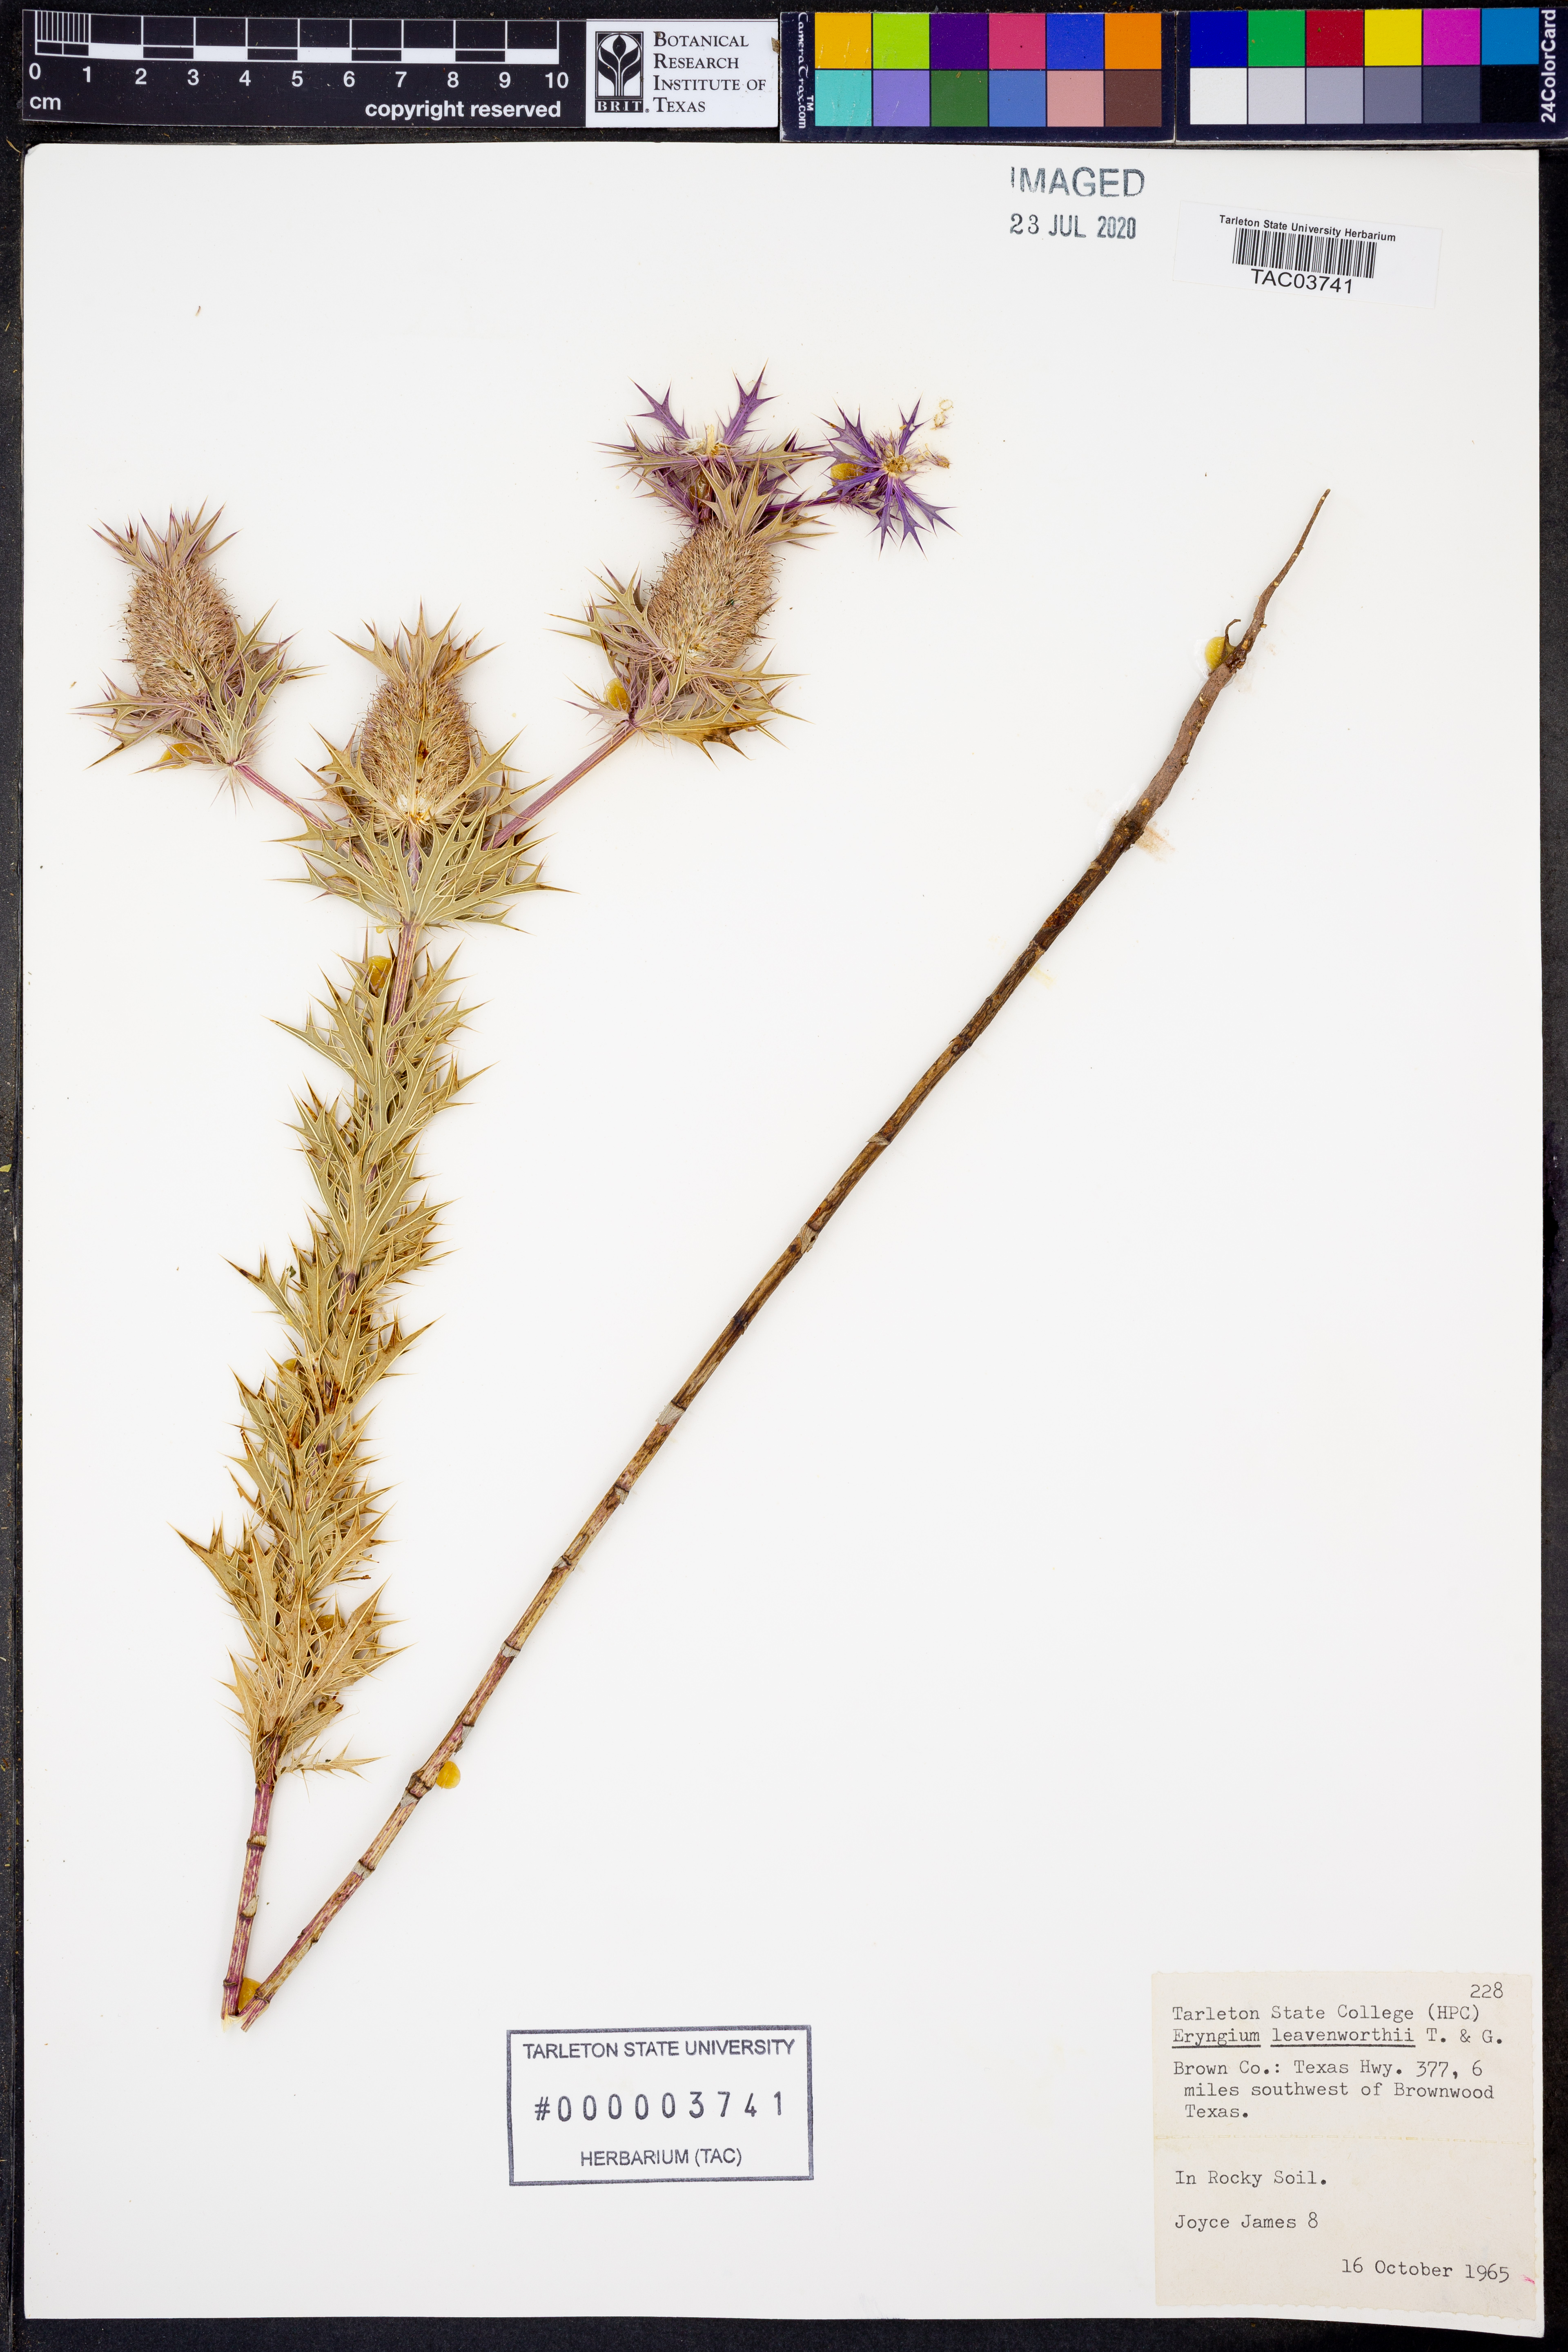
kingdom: Plantae
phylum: Tracheophyta
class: Magnoliopsida
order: Apiales
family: Apiaceae
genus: Eryngium
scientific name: Eryngium leavenworthii
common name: Leavenworth's eryngo
